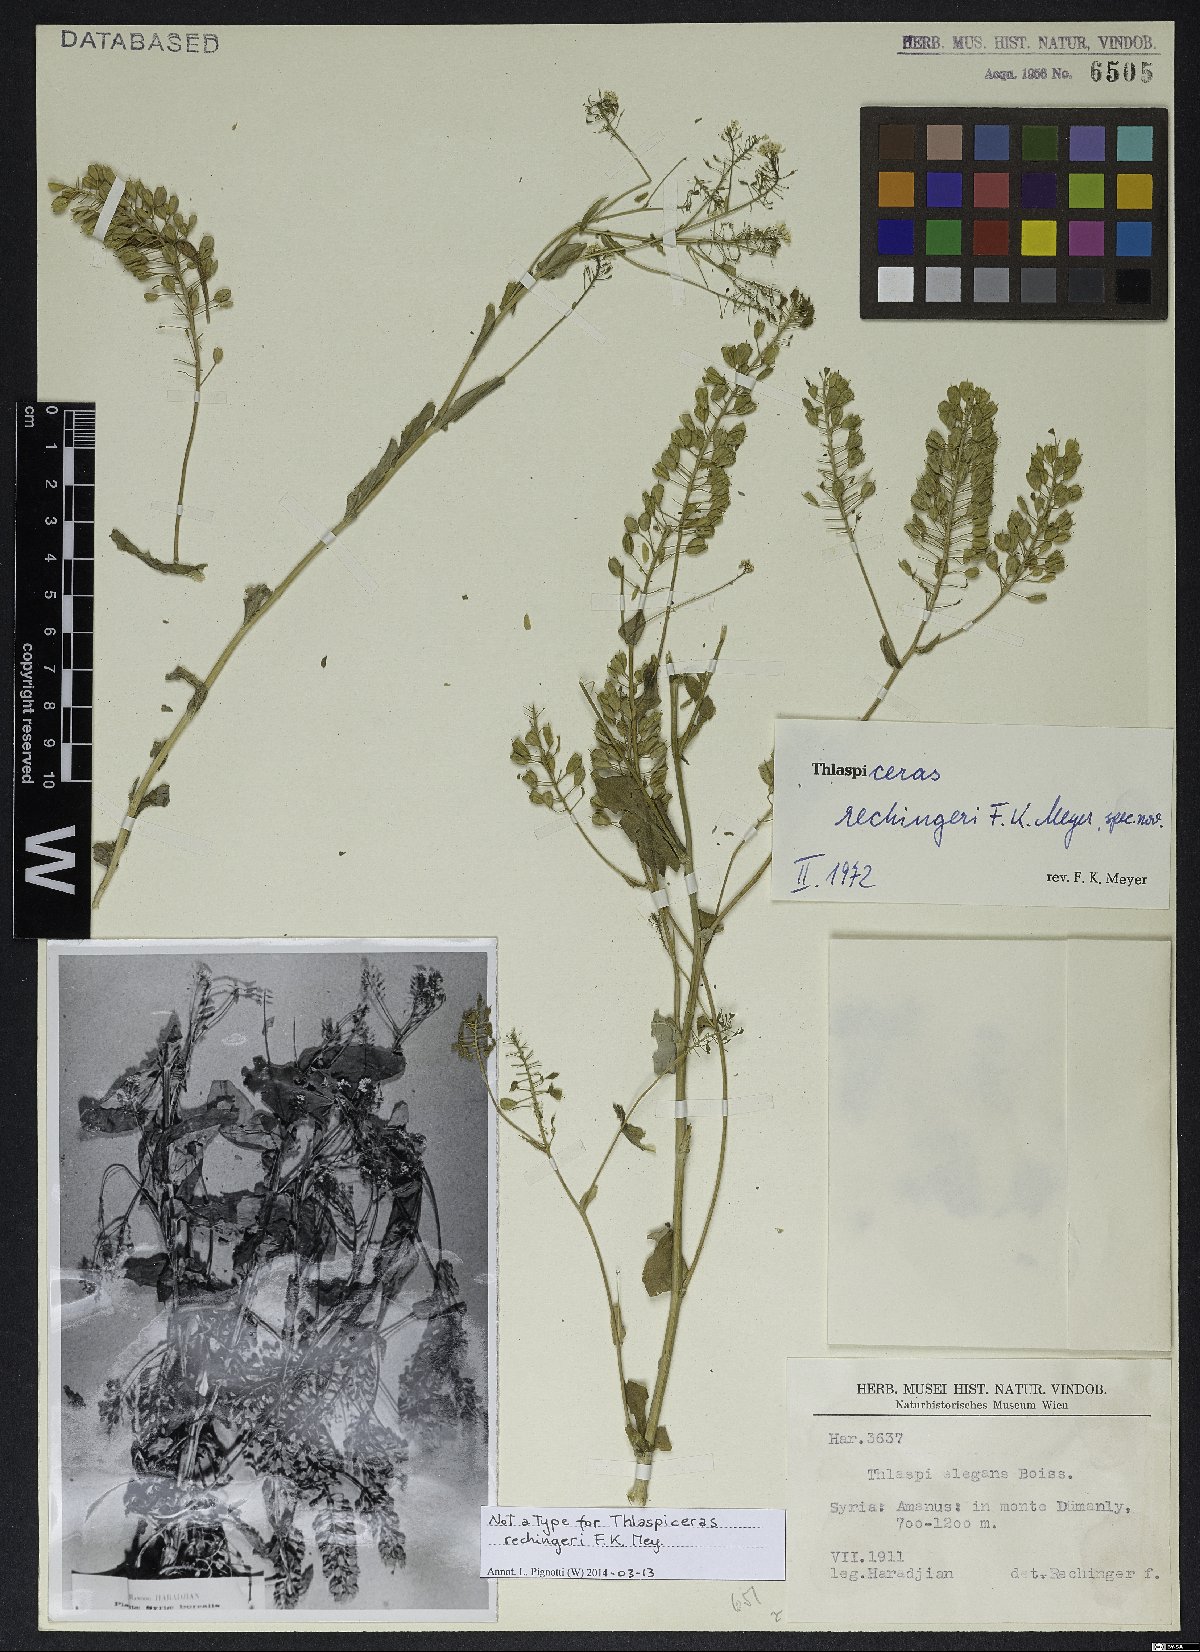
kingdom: Plantae
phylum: Tracheophyta
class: Magnoliopsida
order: Brassicales
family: Brassicaceae
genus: Noccaea
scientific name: Noccaea rechingeri
